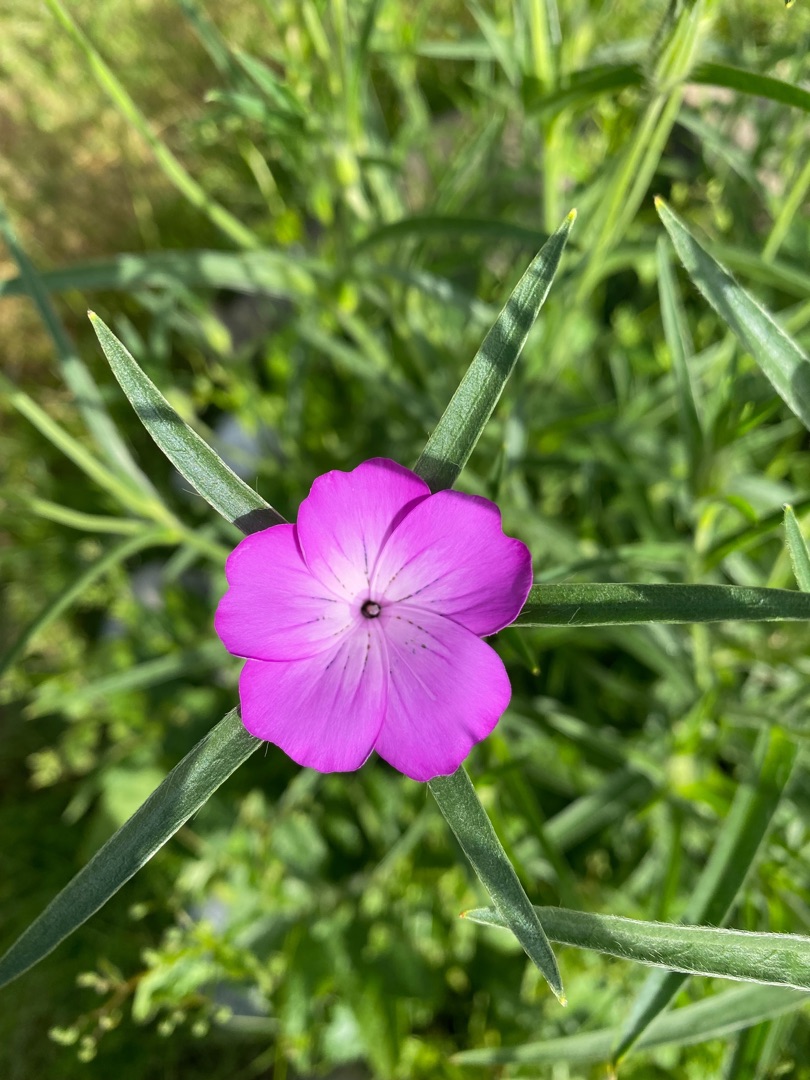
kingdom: Plantae
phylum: Tracheophyta
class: Magnoliopsida
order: Caryophyllales
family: Caryophyllaceae
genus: Agrostemma
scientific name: Agrostemma githago
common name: Klinte
